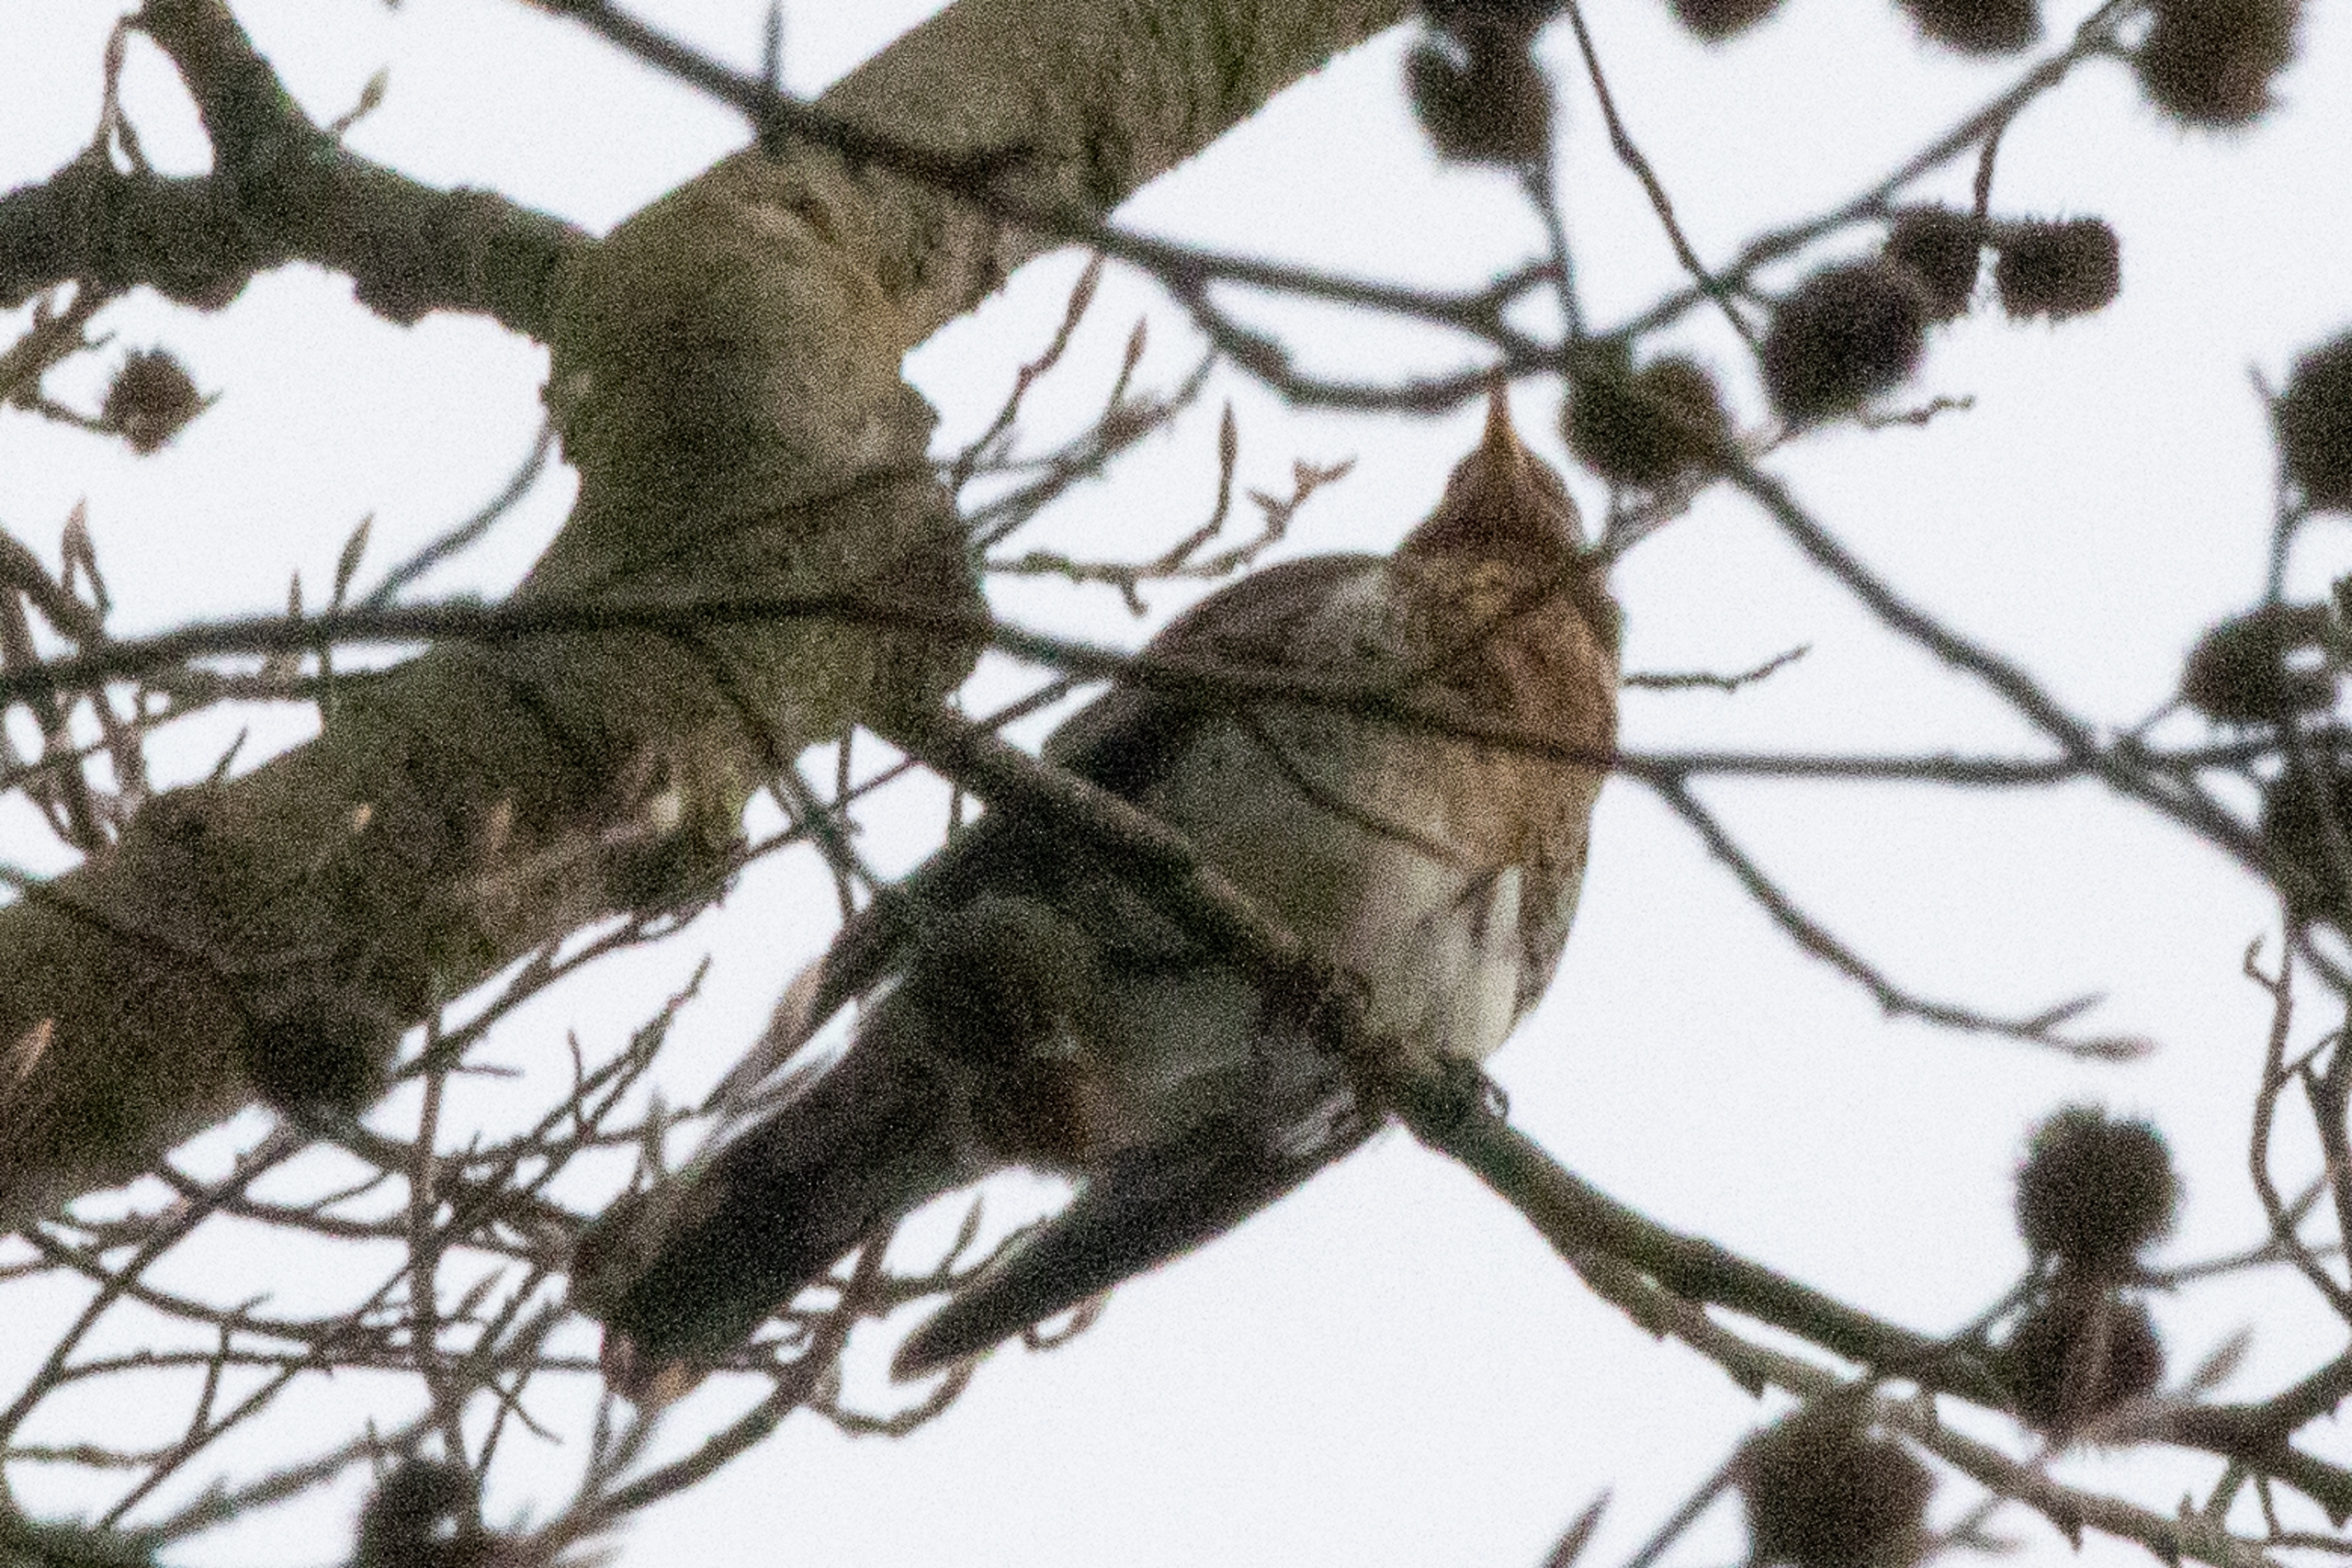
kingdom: Animalia
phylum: Chordata
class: Aves
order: Passeriformes
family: Turdidae
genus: Turdus
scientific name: Turdus pilaris
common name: Sjagger
